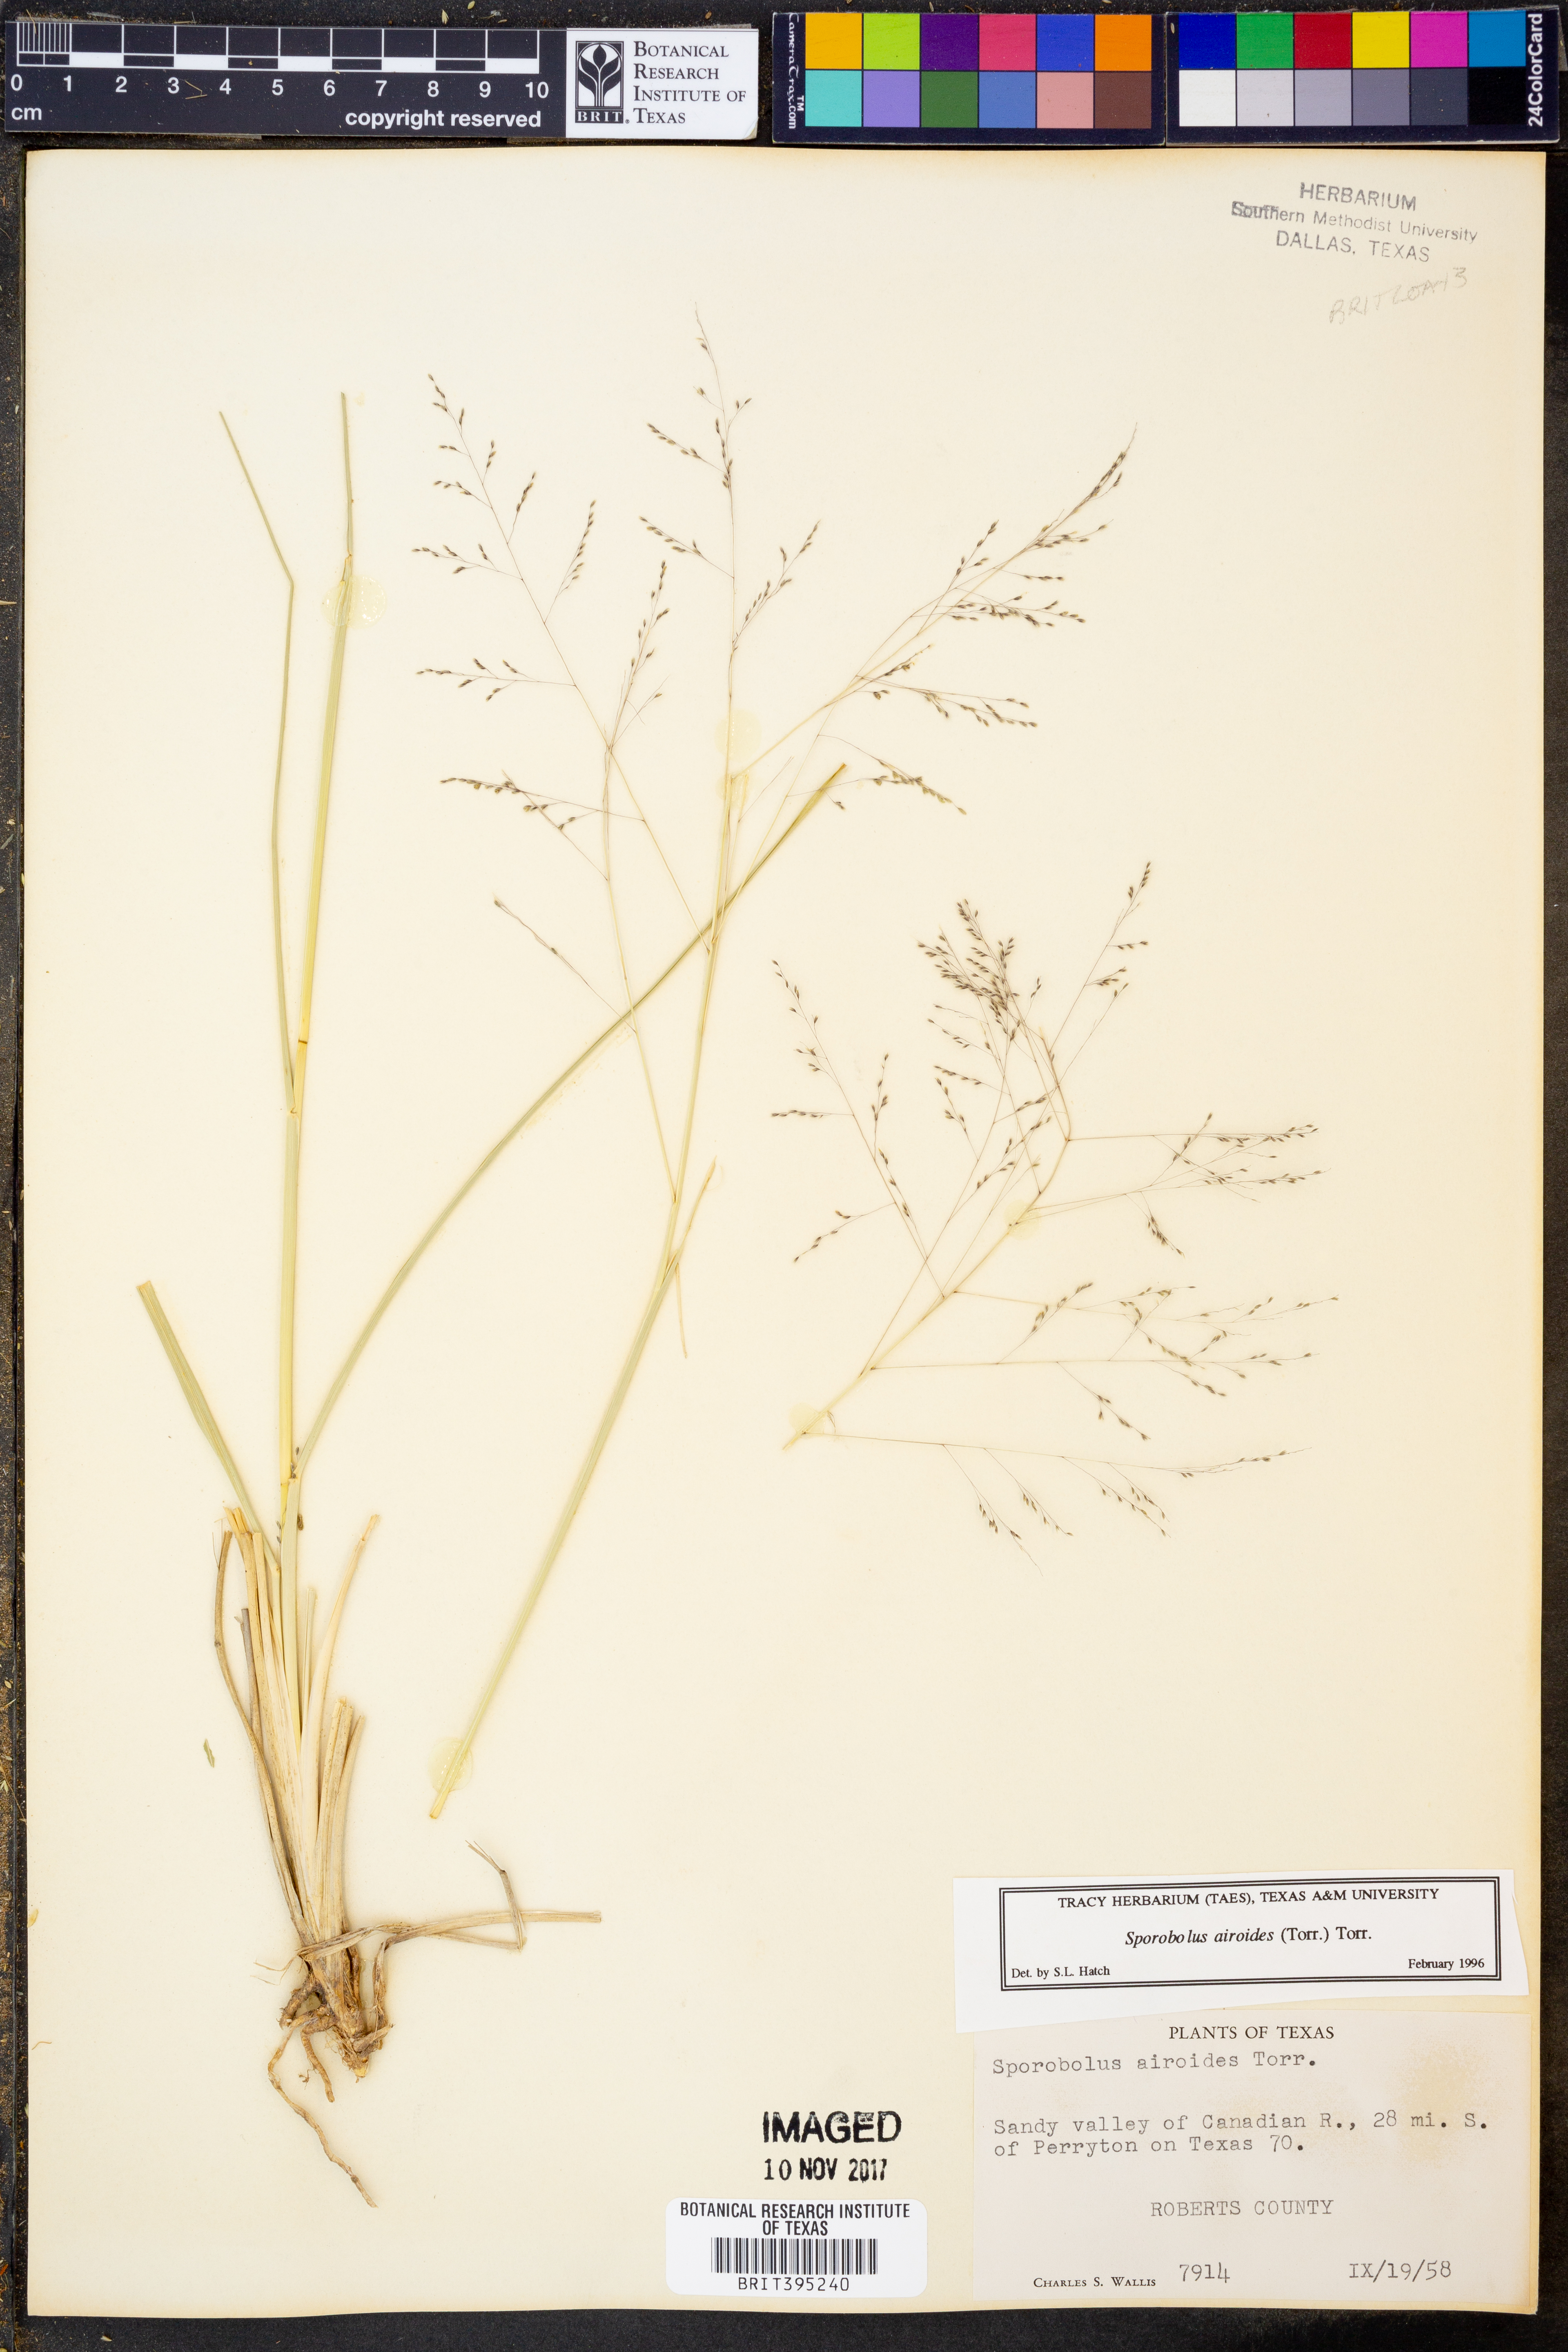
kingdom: Plantae
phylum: Tracheophyta
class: Liliopsida
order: Poales
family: Poaceae
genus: Sporobolus
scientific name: Sporobolus airoides
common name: Alkali sacaton
